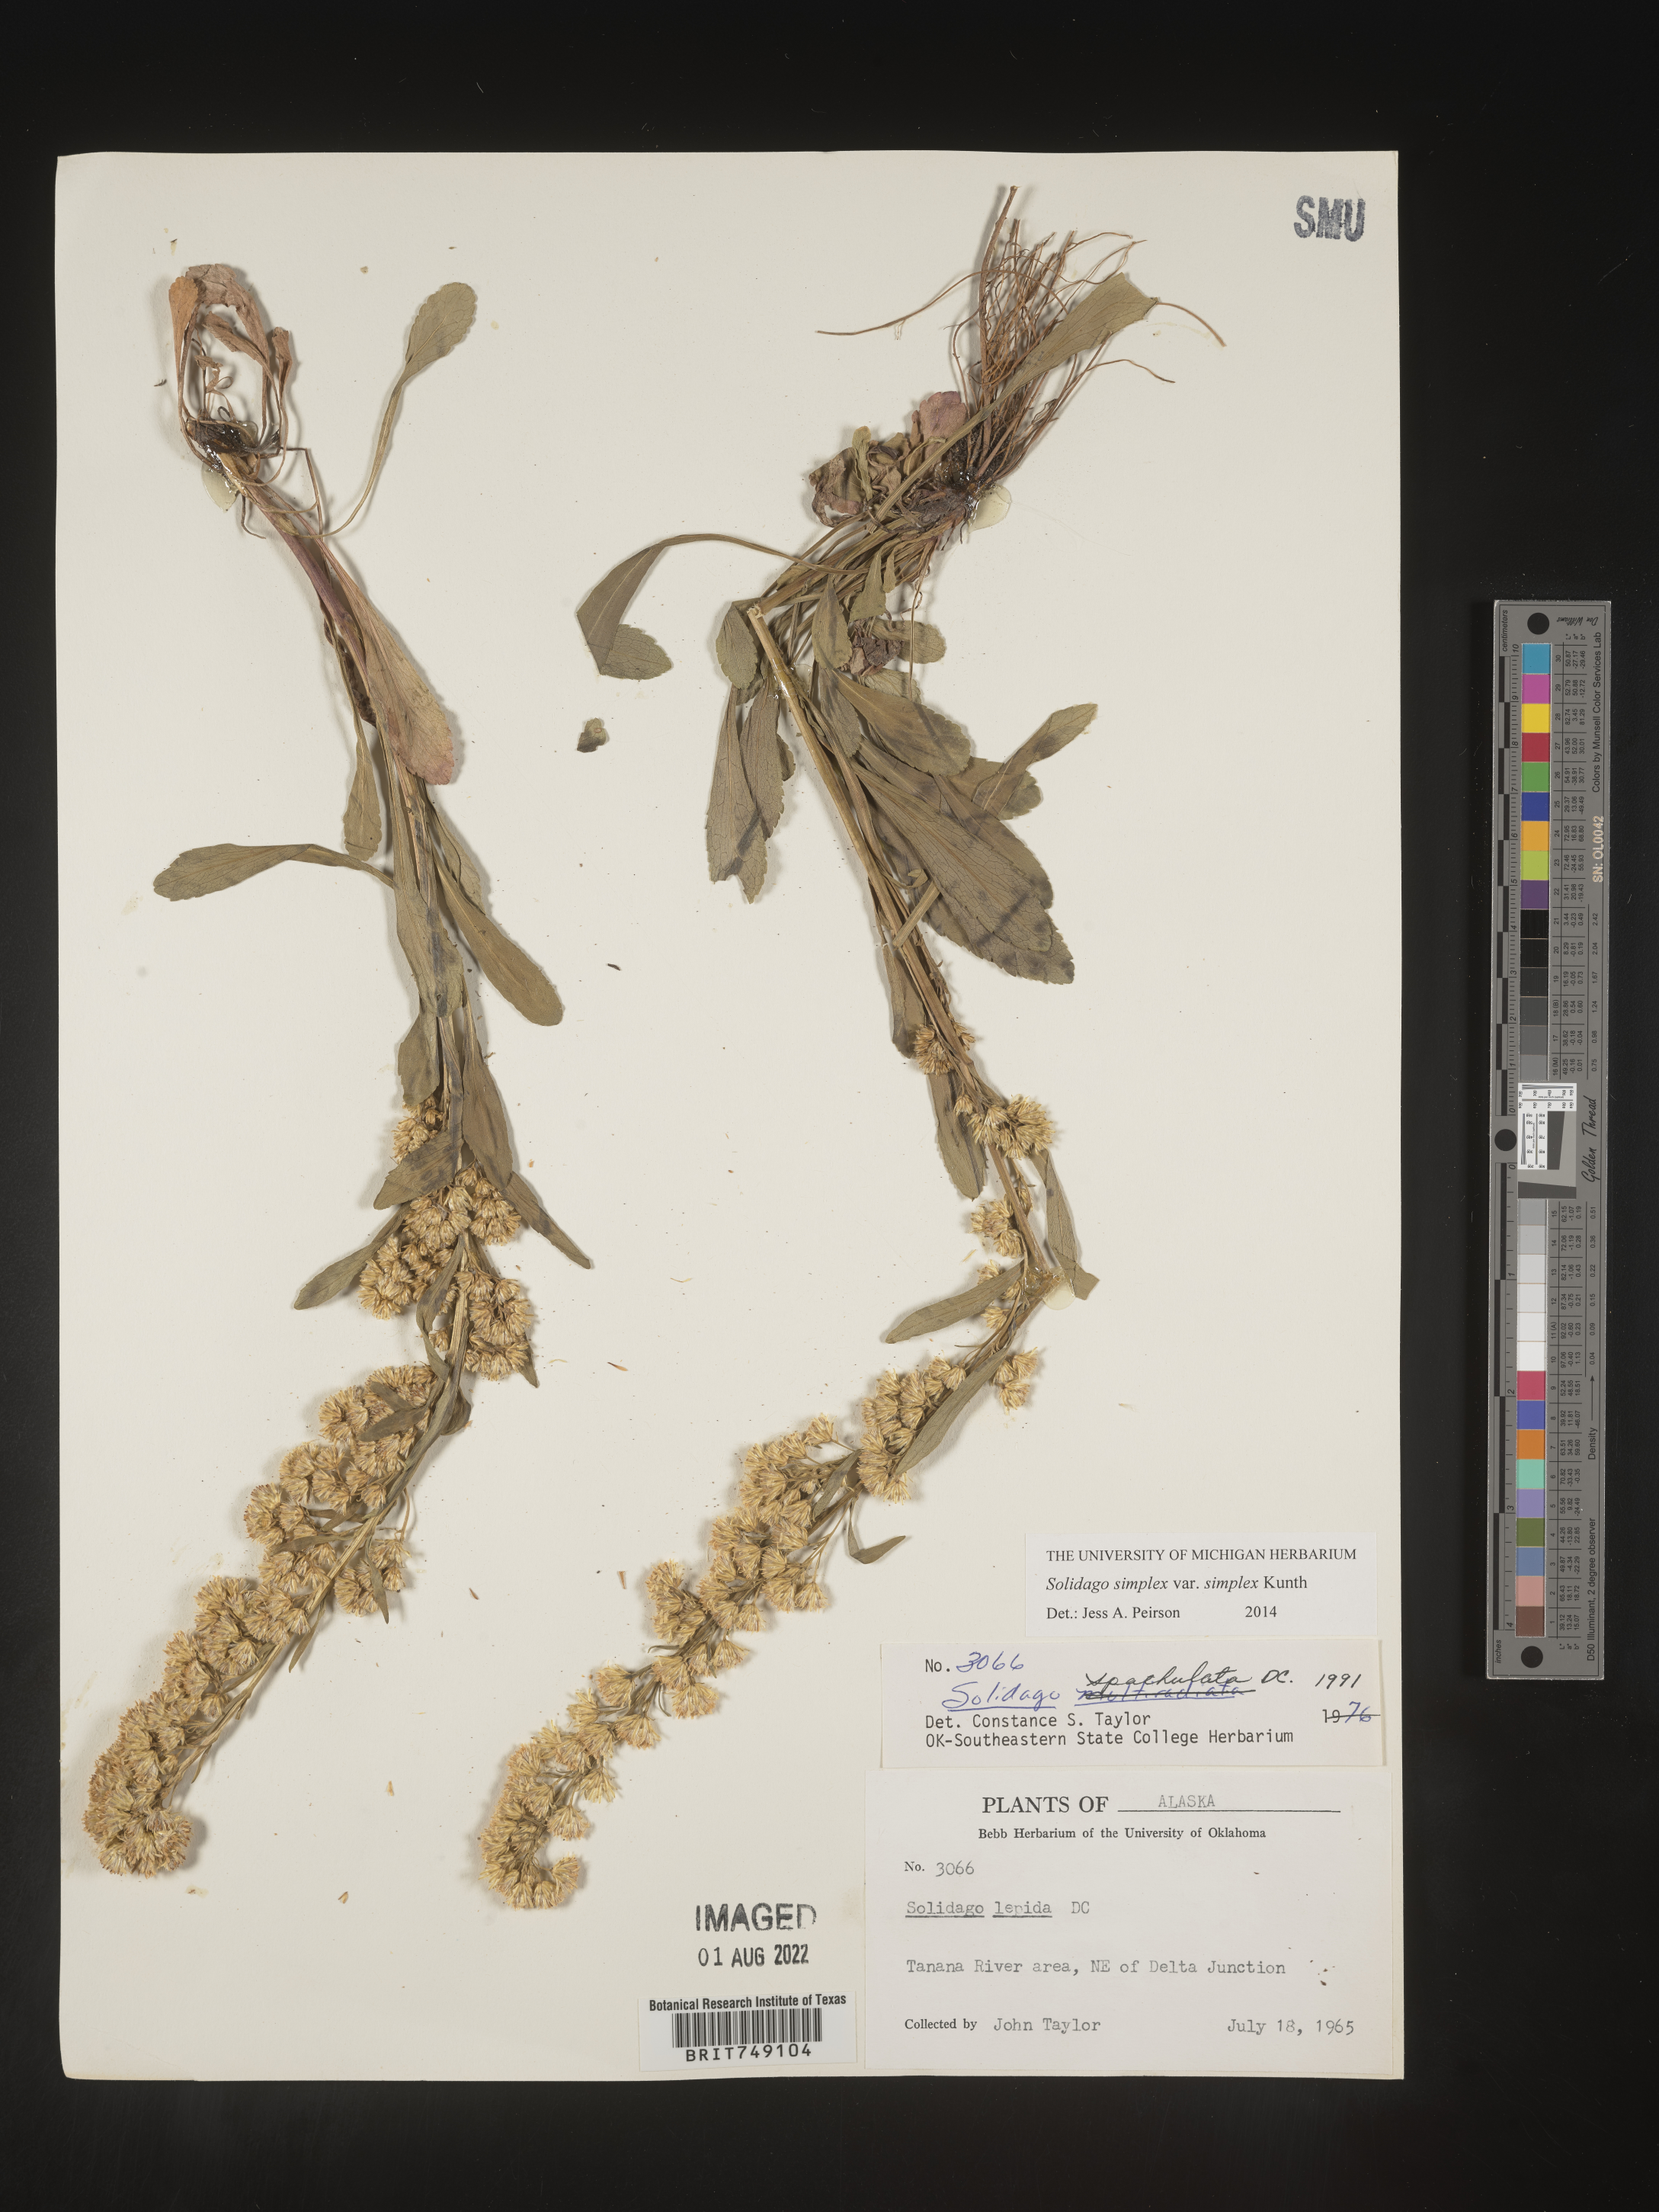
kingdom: Plantae
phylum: Tracheophyta
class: Magnoliopsida
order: Asterales
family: Asteraceae
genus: Solidago
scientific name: Solidago simplex
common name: Sticky goldenrod
